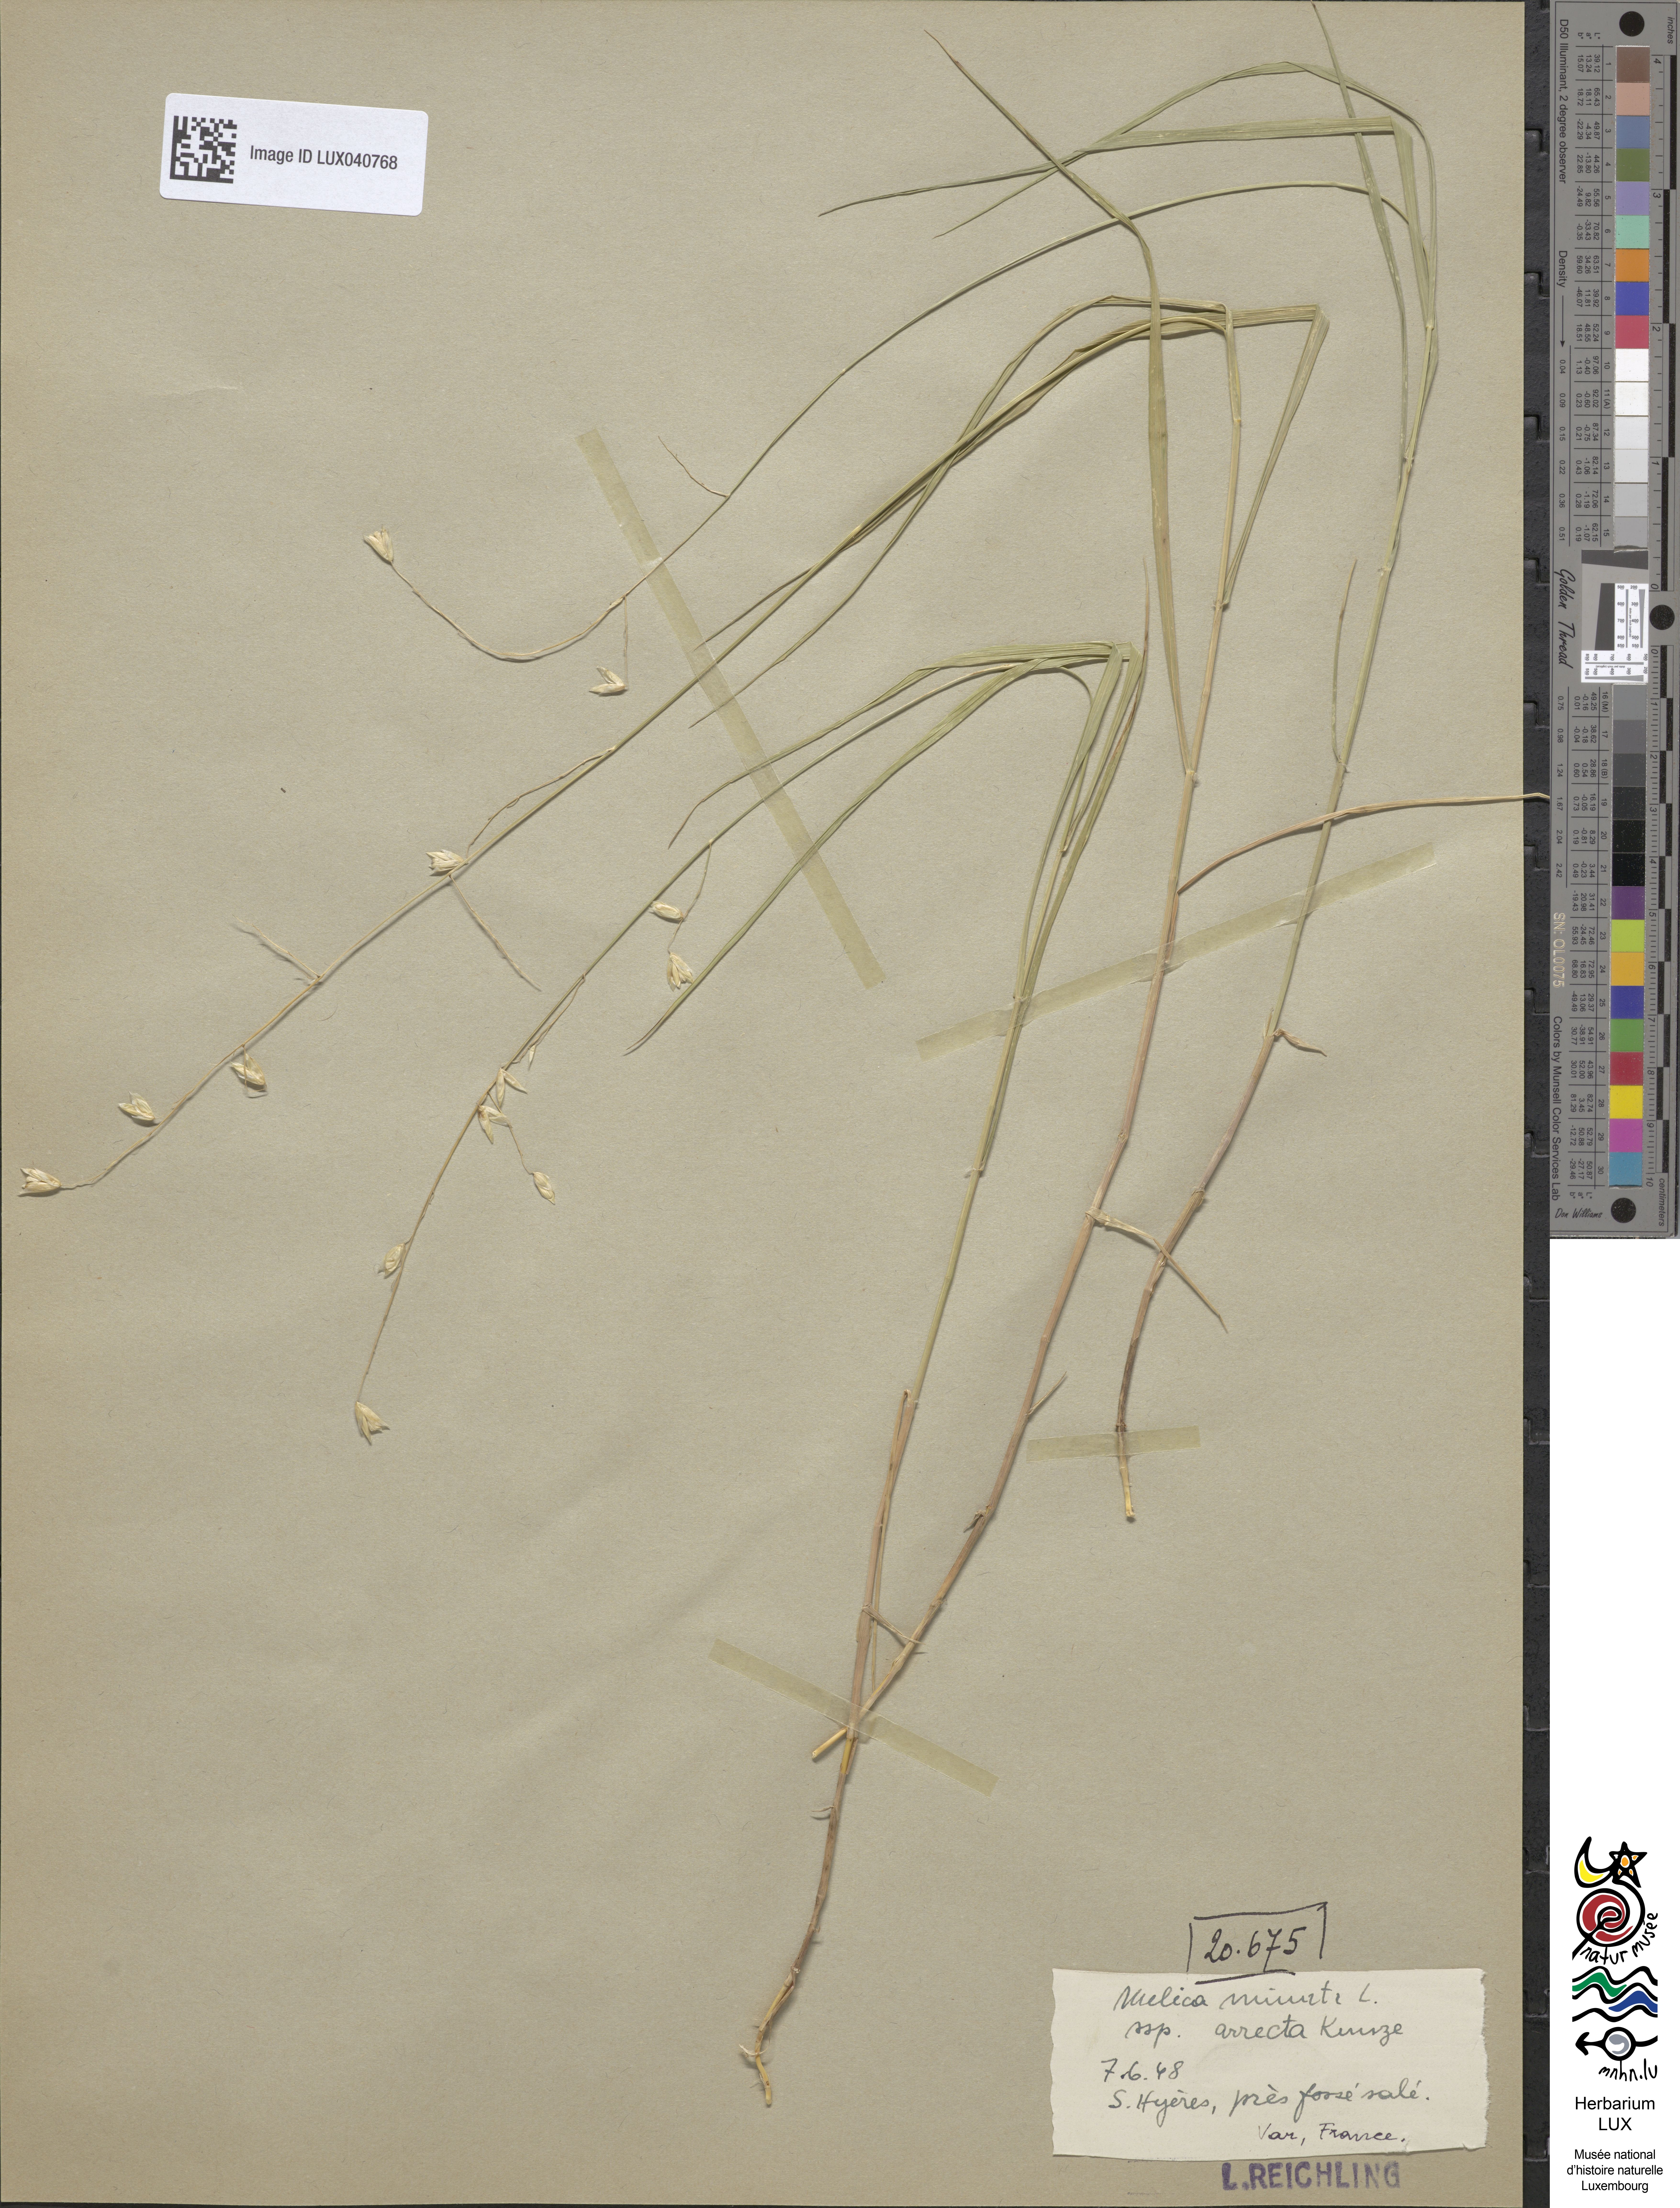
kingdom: Plantae
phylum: Tracheophyta
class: Liliopsida
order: Poales
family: Poaceae
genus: Melica
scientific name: Melica minuta
